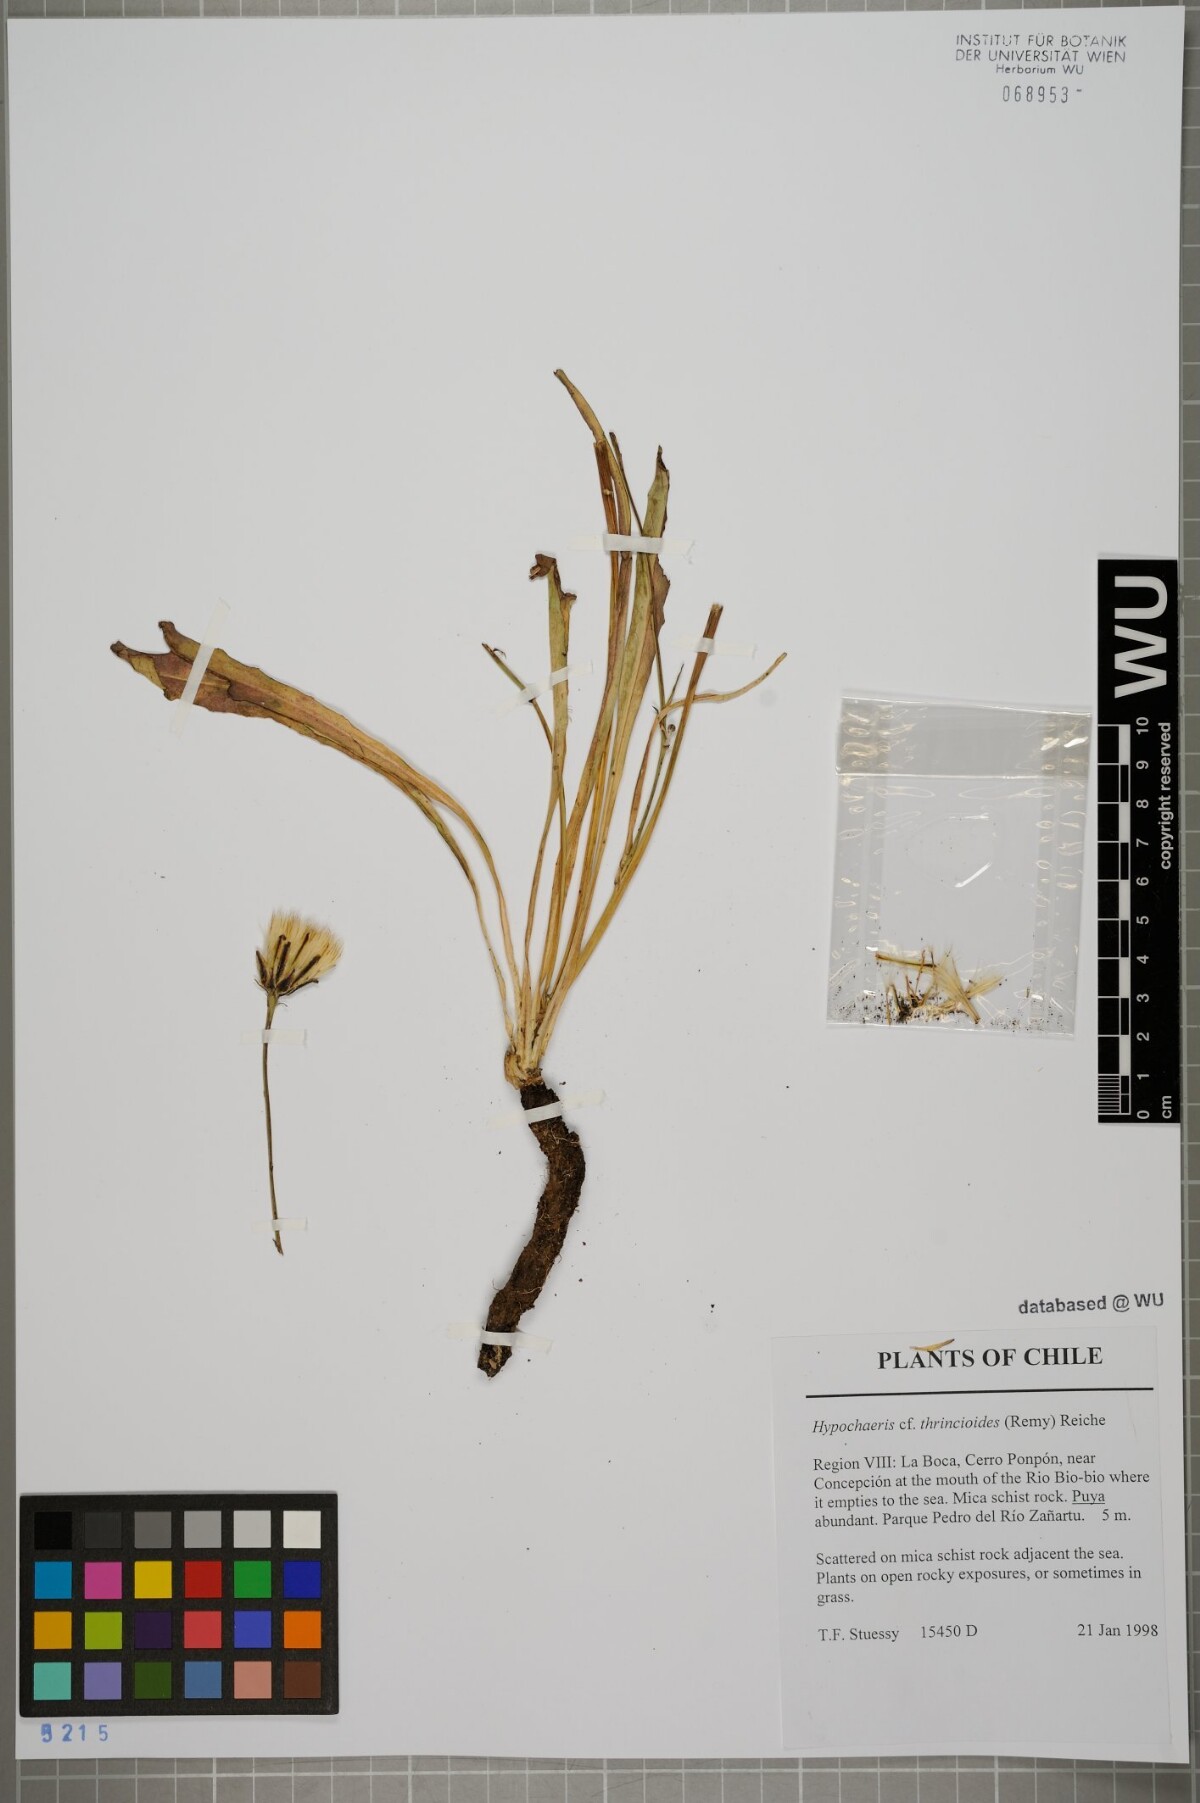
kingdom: Plantae
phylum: Tracheophyta
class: Magnoliopsida
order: Asterales
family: Asteraceae
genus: Hypochaeris
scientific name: Hypochaeris apargioides
